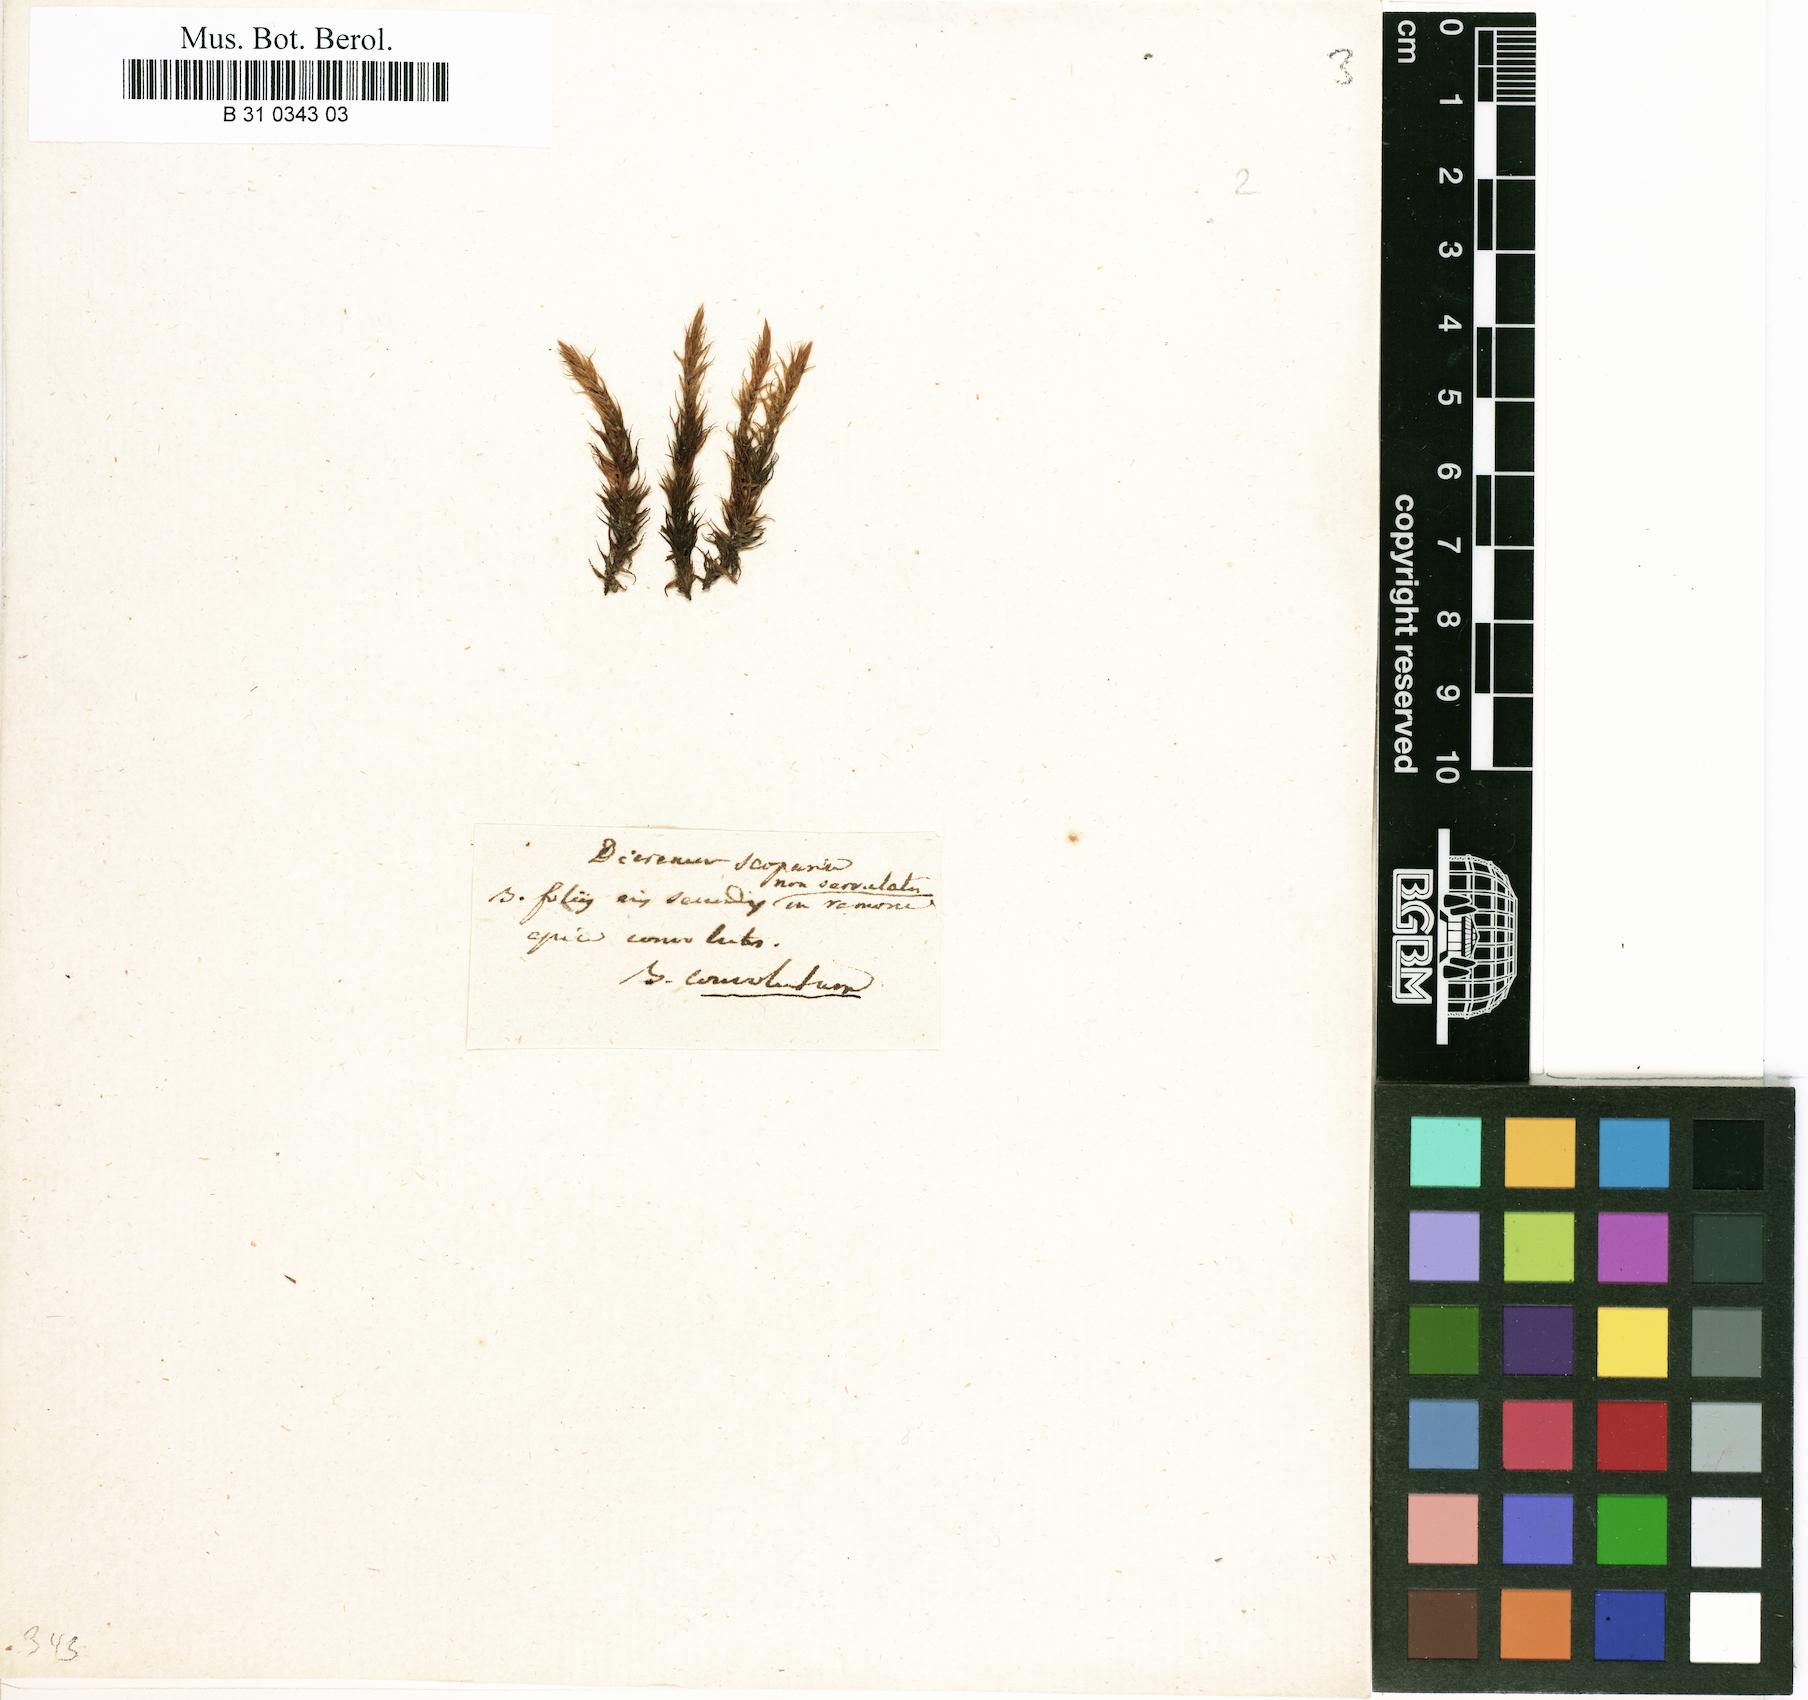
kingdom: Plantae
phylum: Bryophyta
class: Bryopsida
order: Dicranales
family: Dicranaceae
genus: Dicranum
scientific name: Dicranum scoparium
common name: Broom fork-moss
